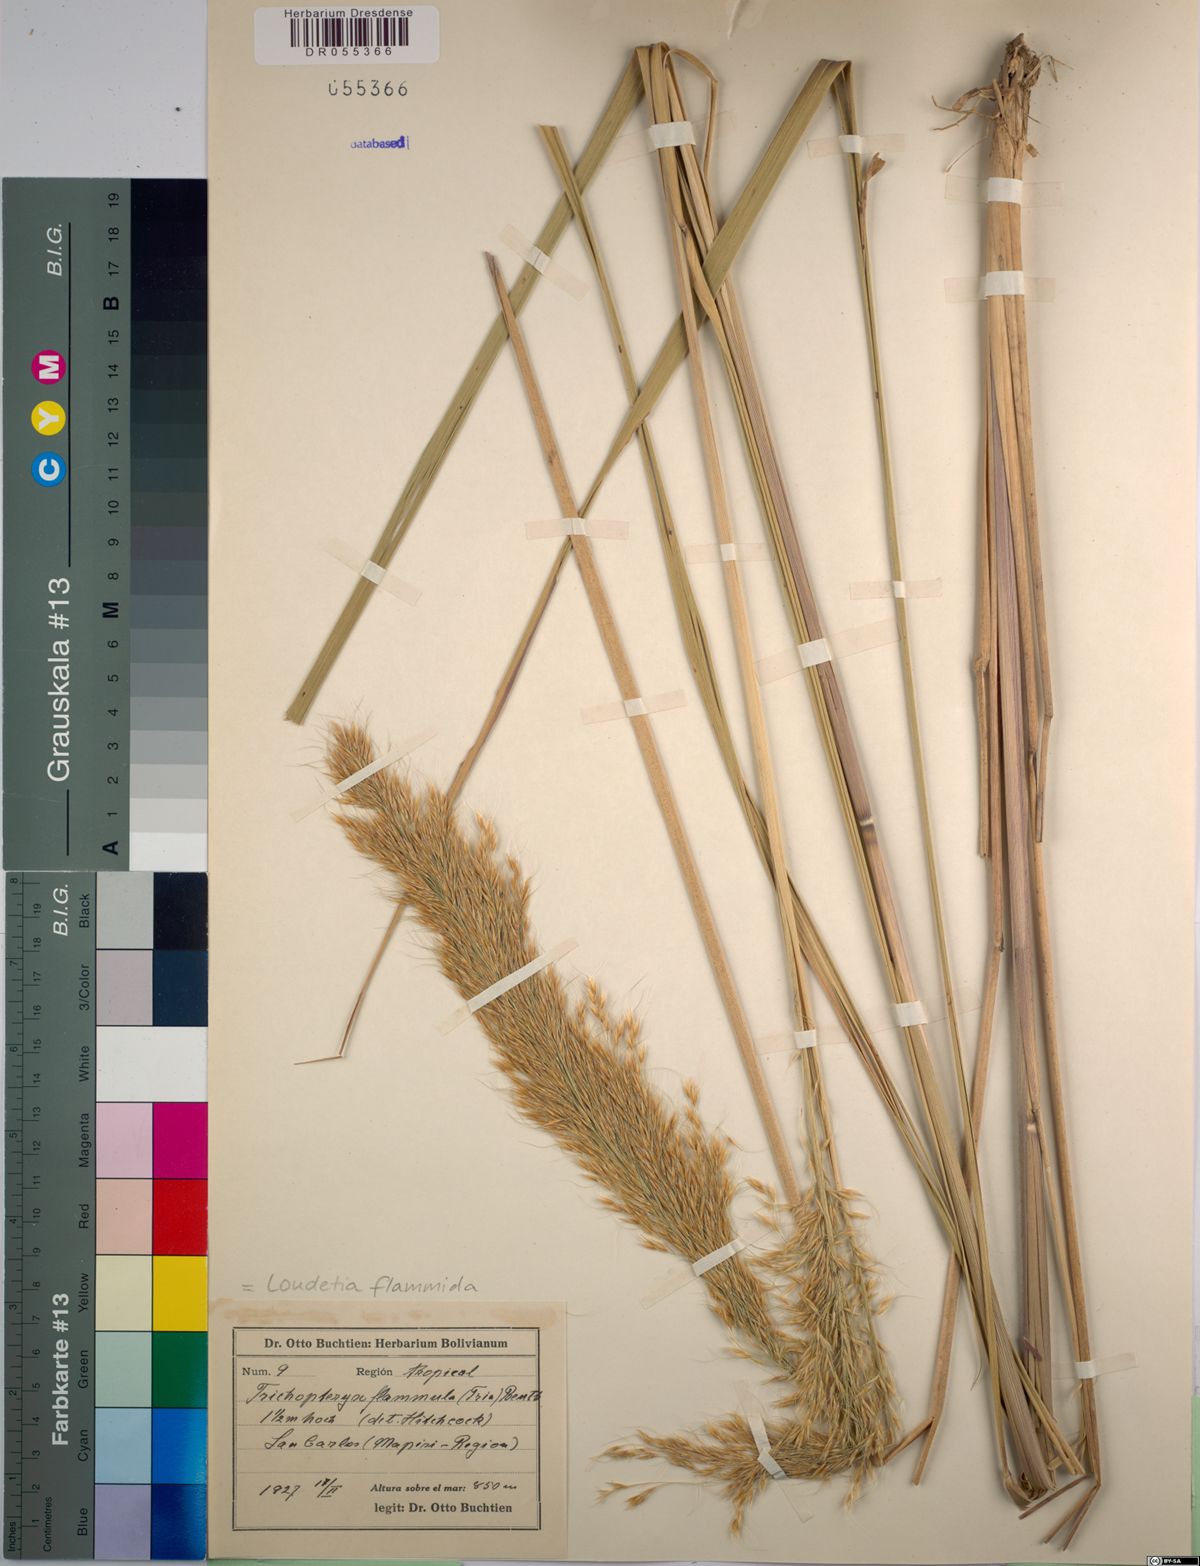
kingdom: Plantae
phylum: Tracheophyta
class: Liliopsida
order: Poales
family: Poaceae
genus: Loudetia
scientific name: Loudetia flammida
